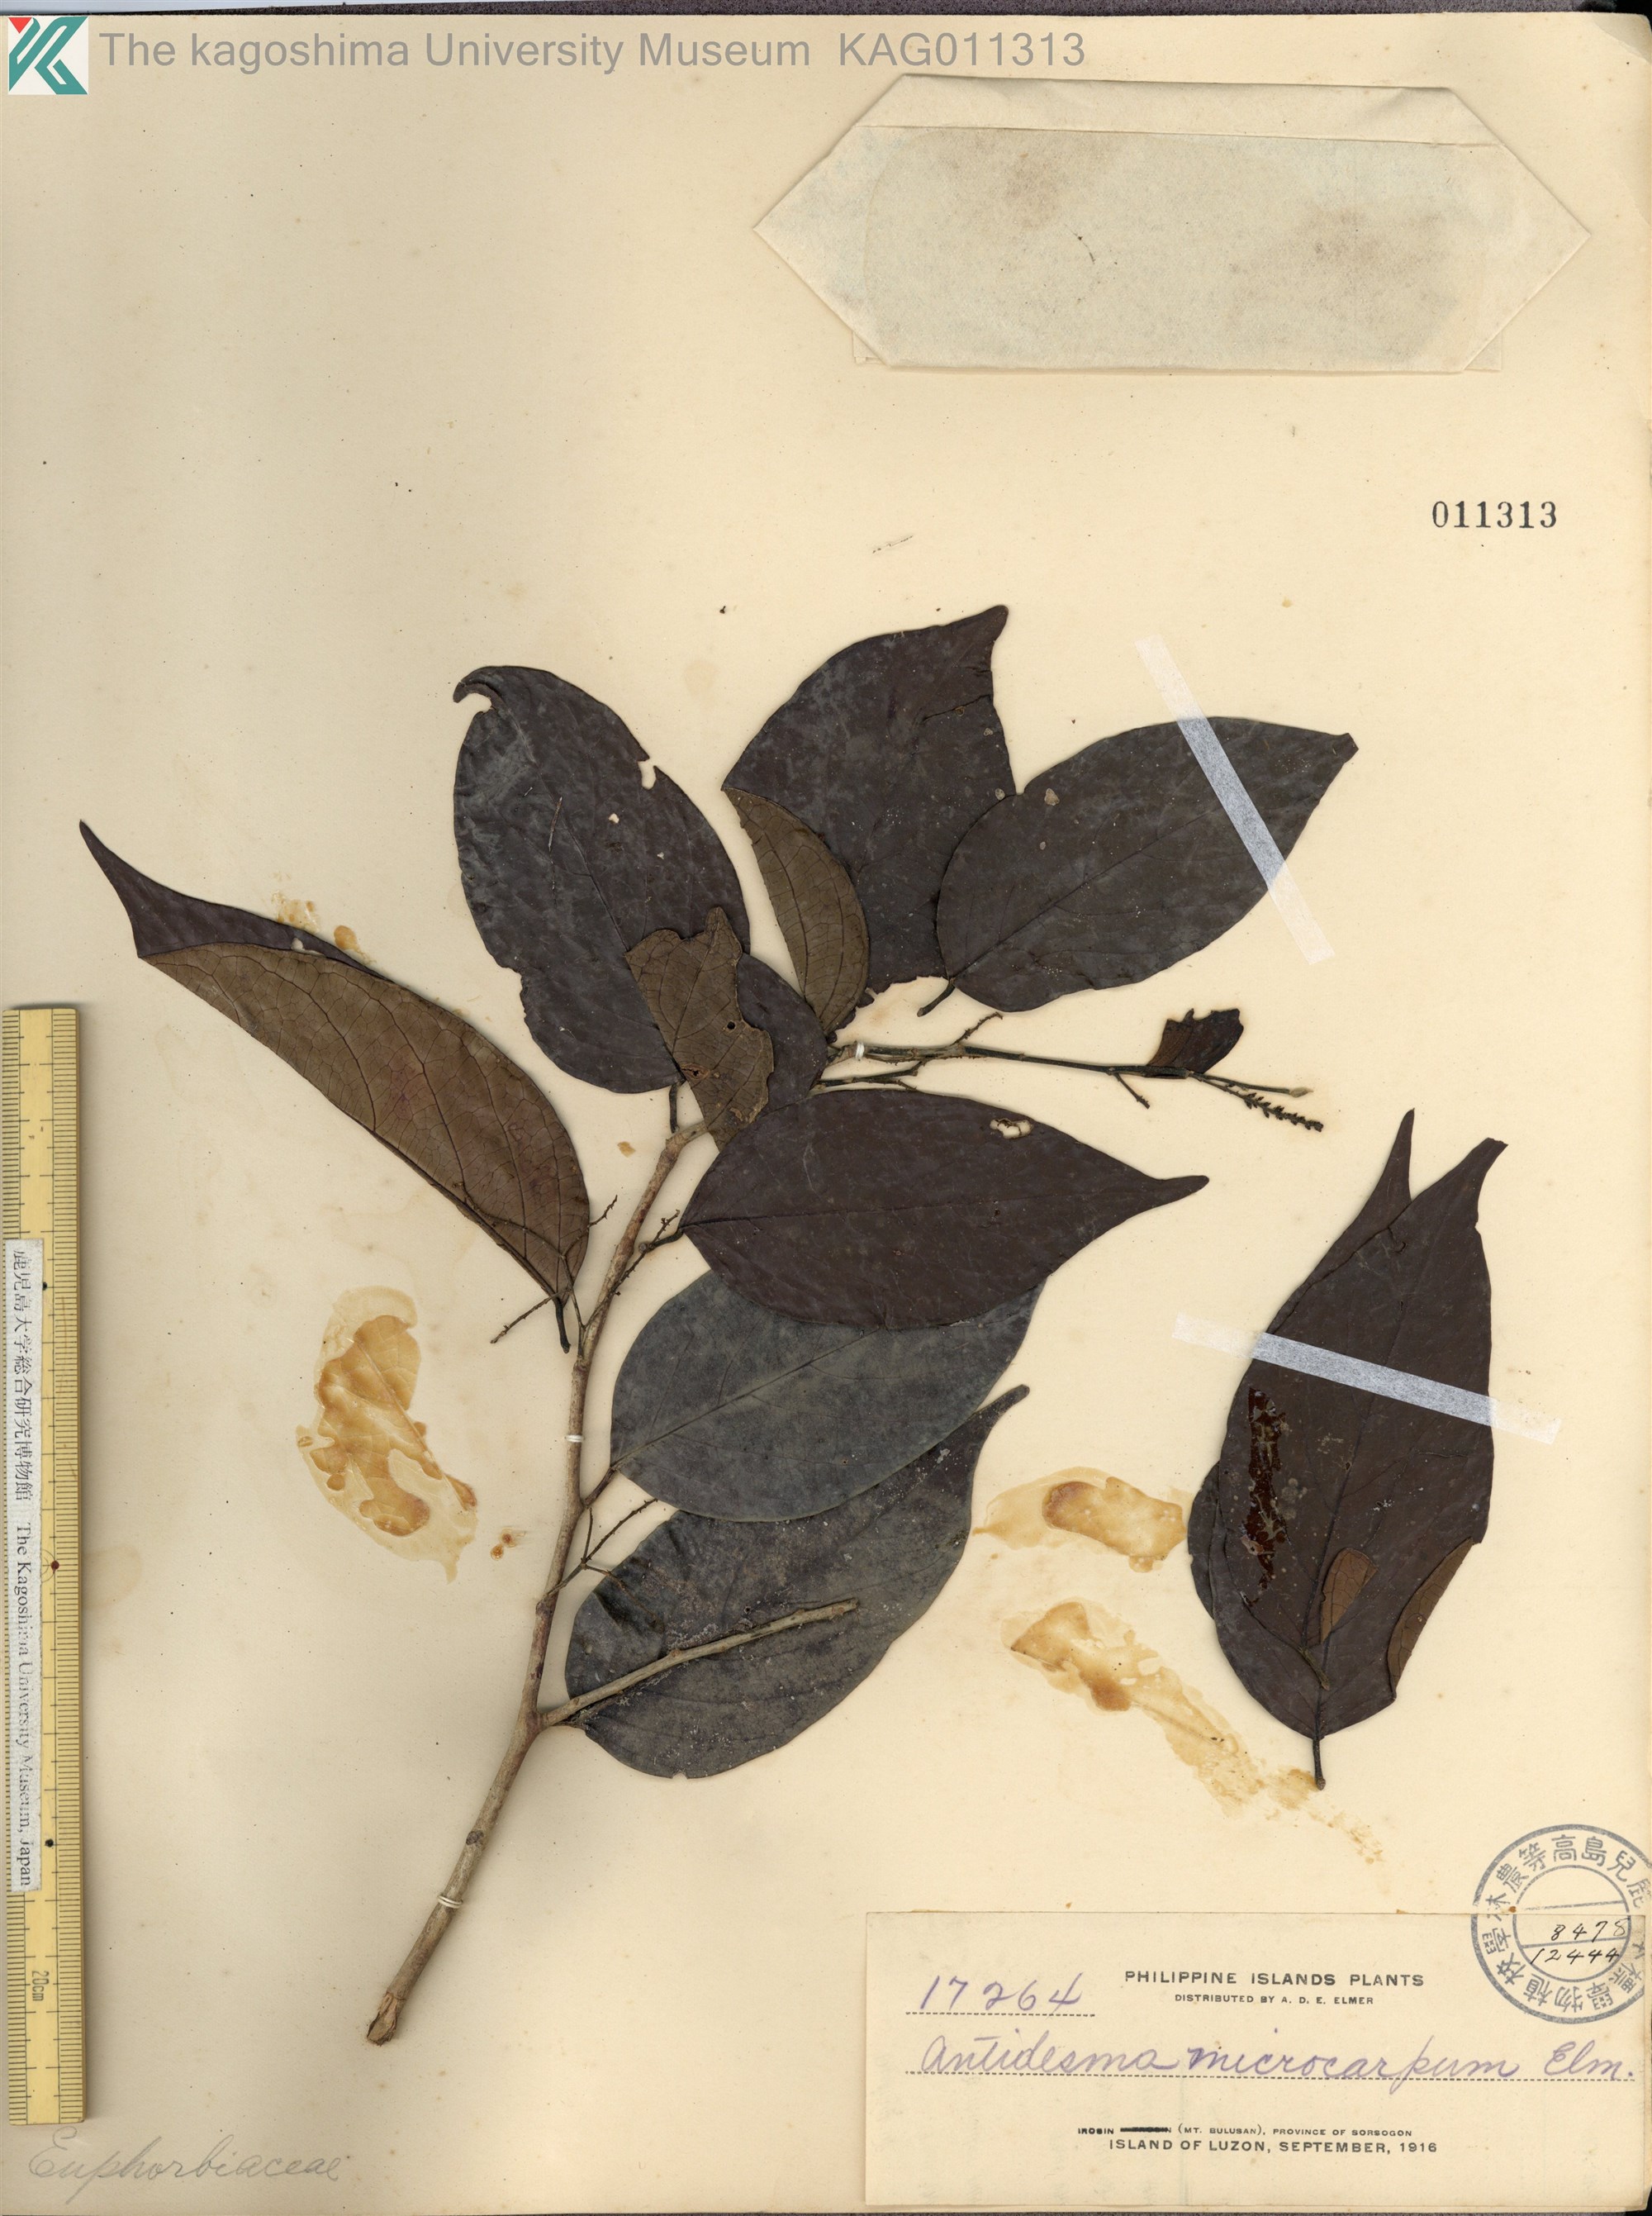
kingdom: Plantae
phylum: Tracheophyta
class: Magnoliopsida
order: Malpighiales
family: Phyllanthaceae
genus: Antidesma
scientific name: Antidesma microcarpum
